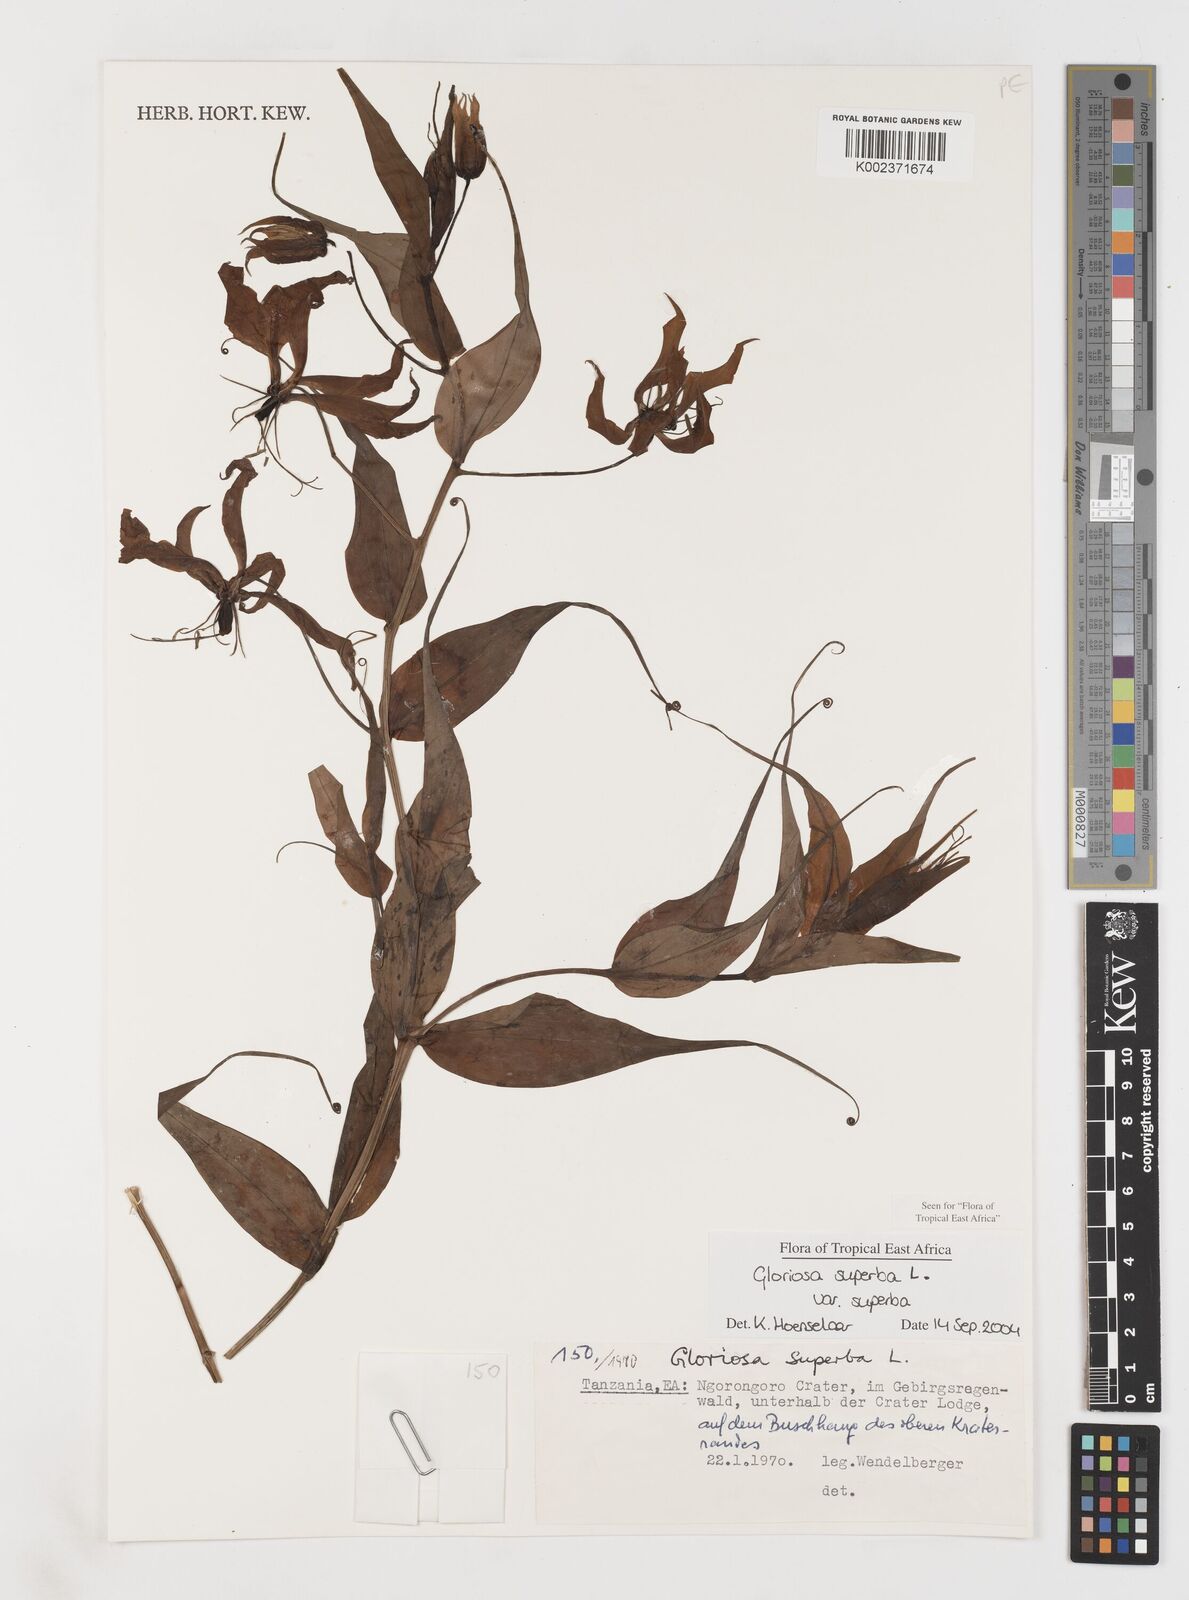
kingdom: Plantae
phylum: Tracheophyta
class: Liliopsida
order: Liliales
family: Colchicaceae
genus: Gloriosa
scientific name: Gloriosa simplex
